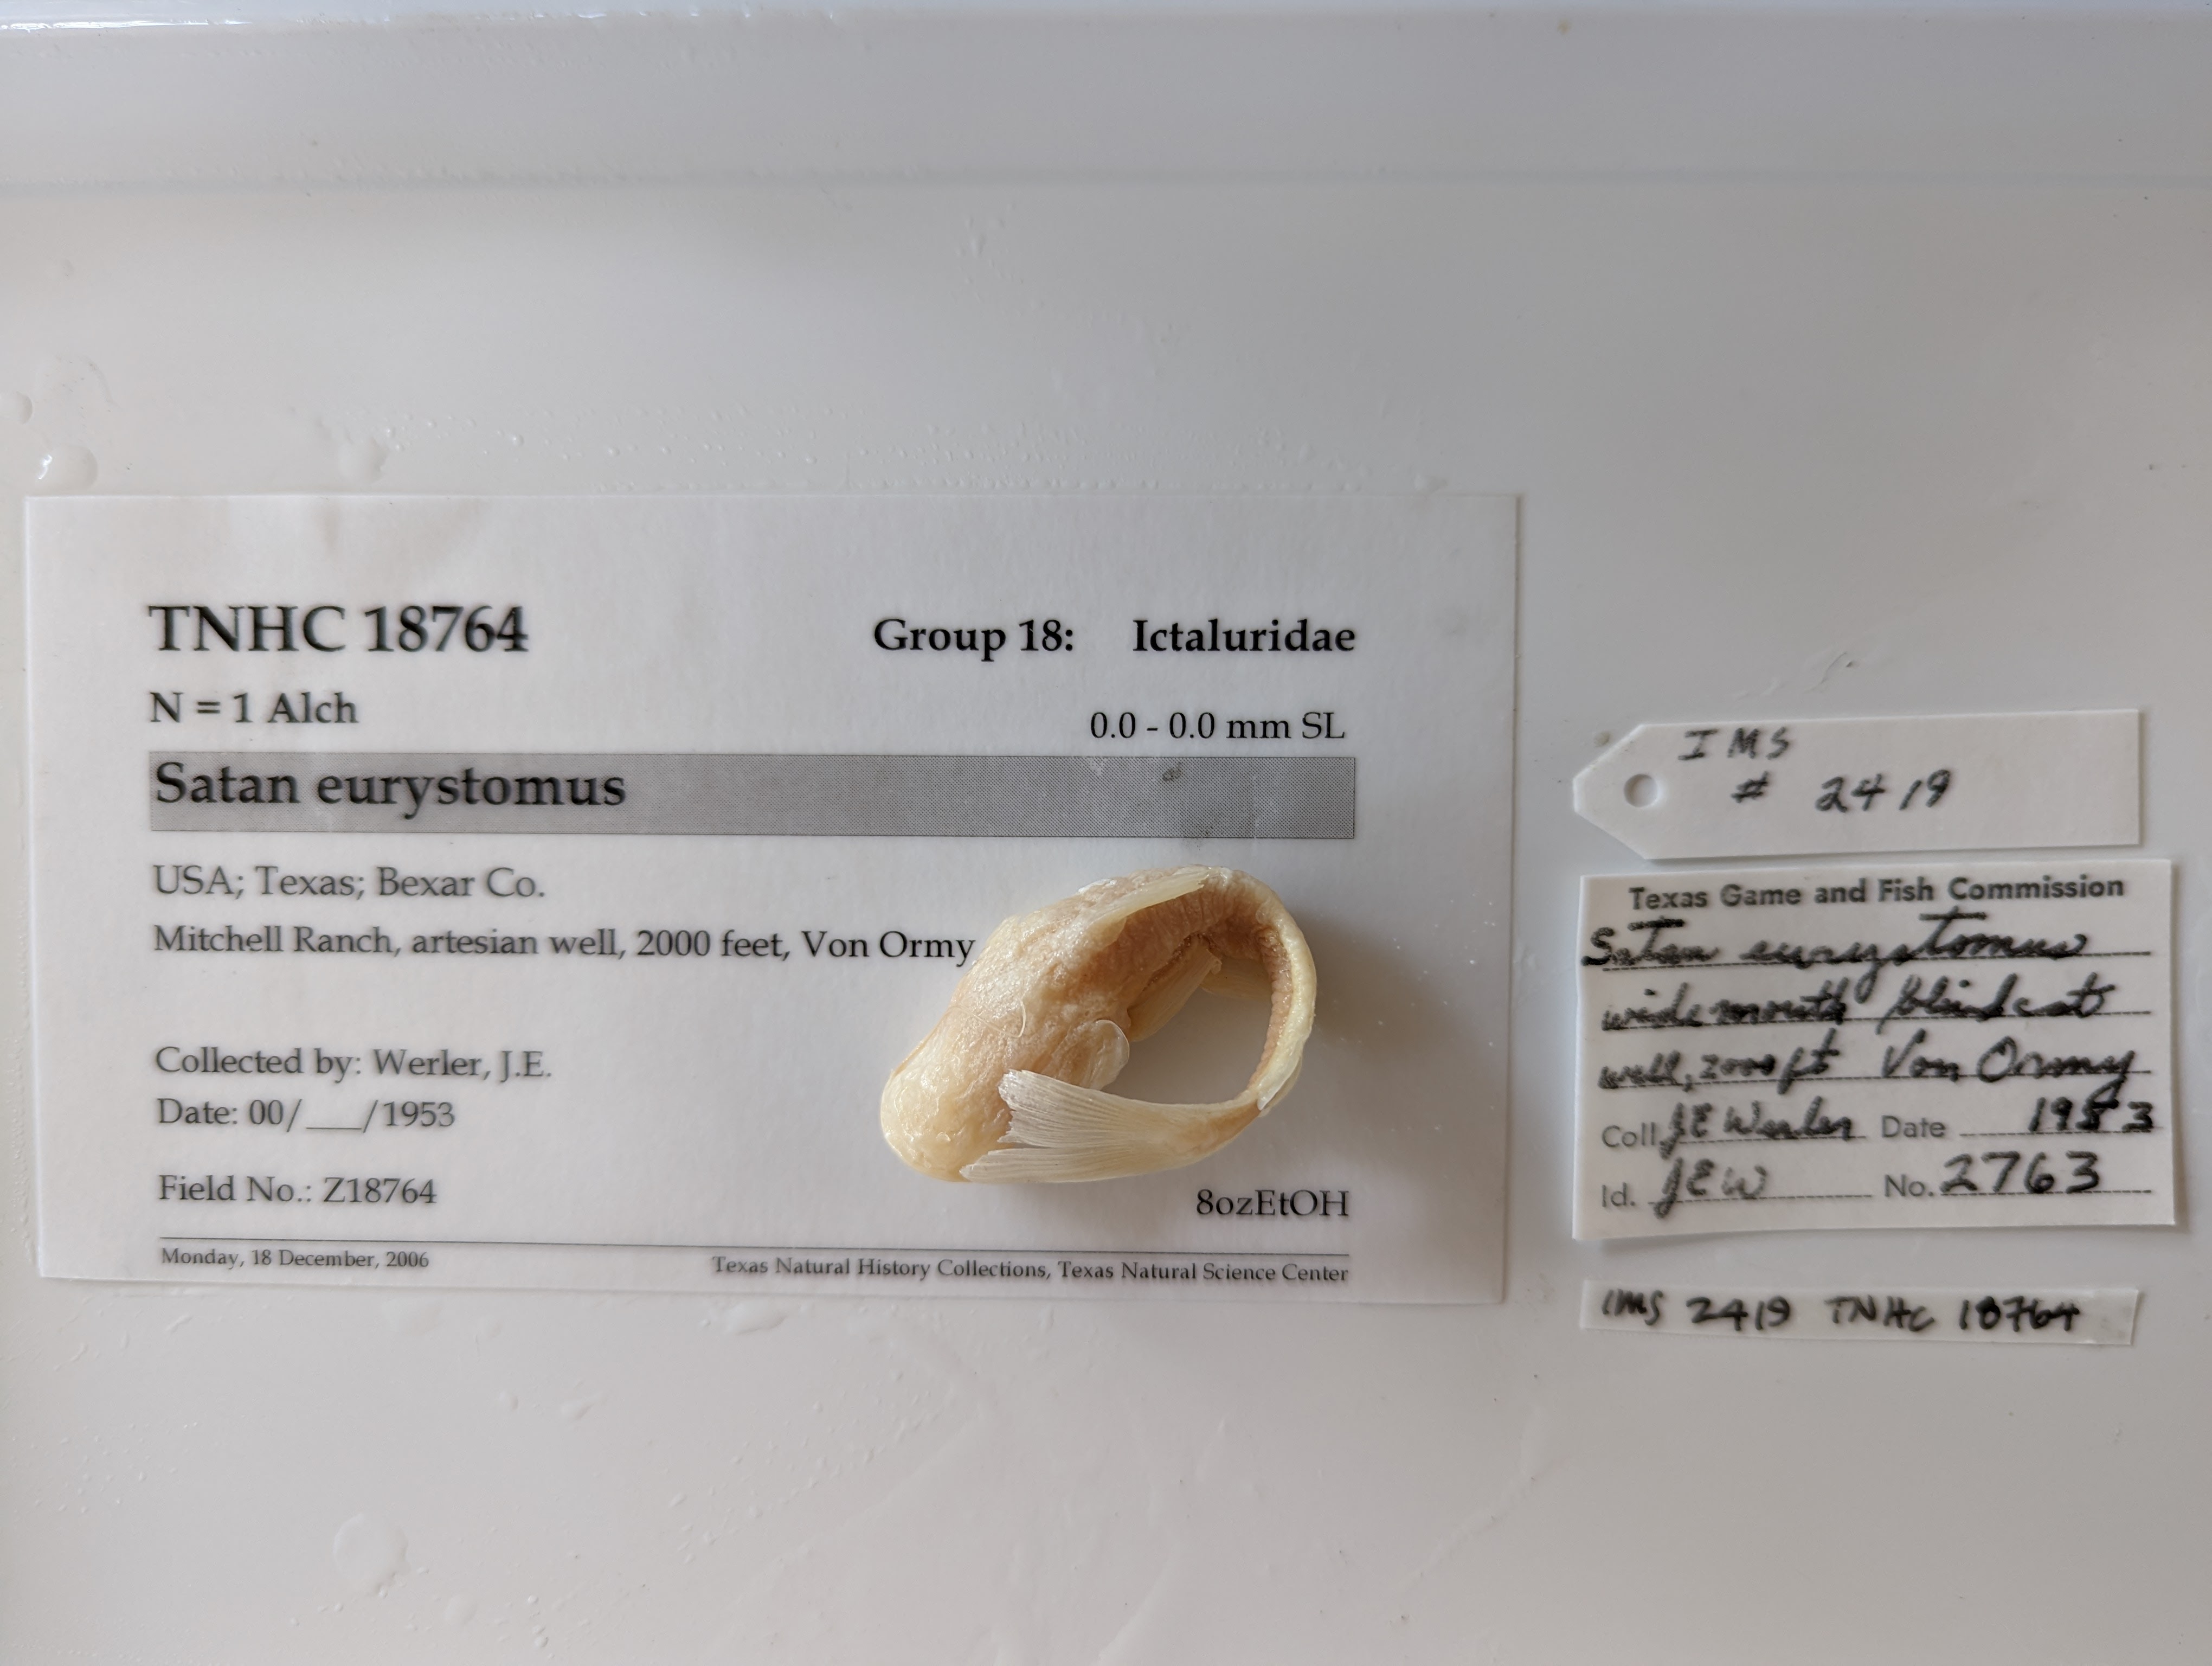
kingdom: Animalia
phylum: Chordata
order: Siluriformes
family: Ictaluridae
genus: Satan
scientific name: Satan eurystomus
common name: Widemouth blindcat
